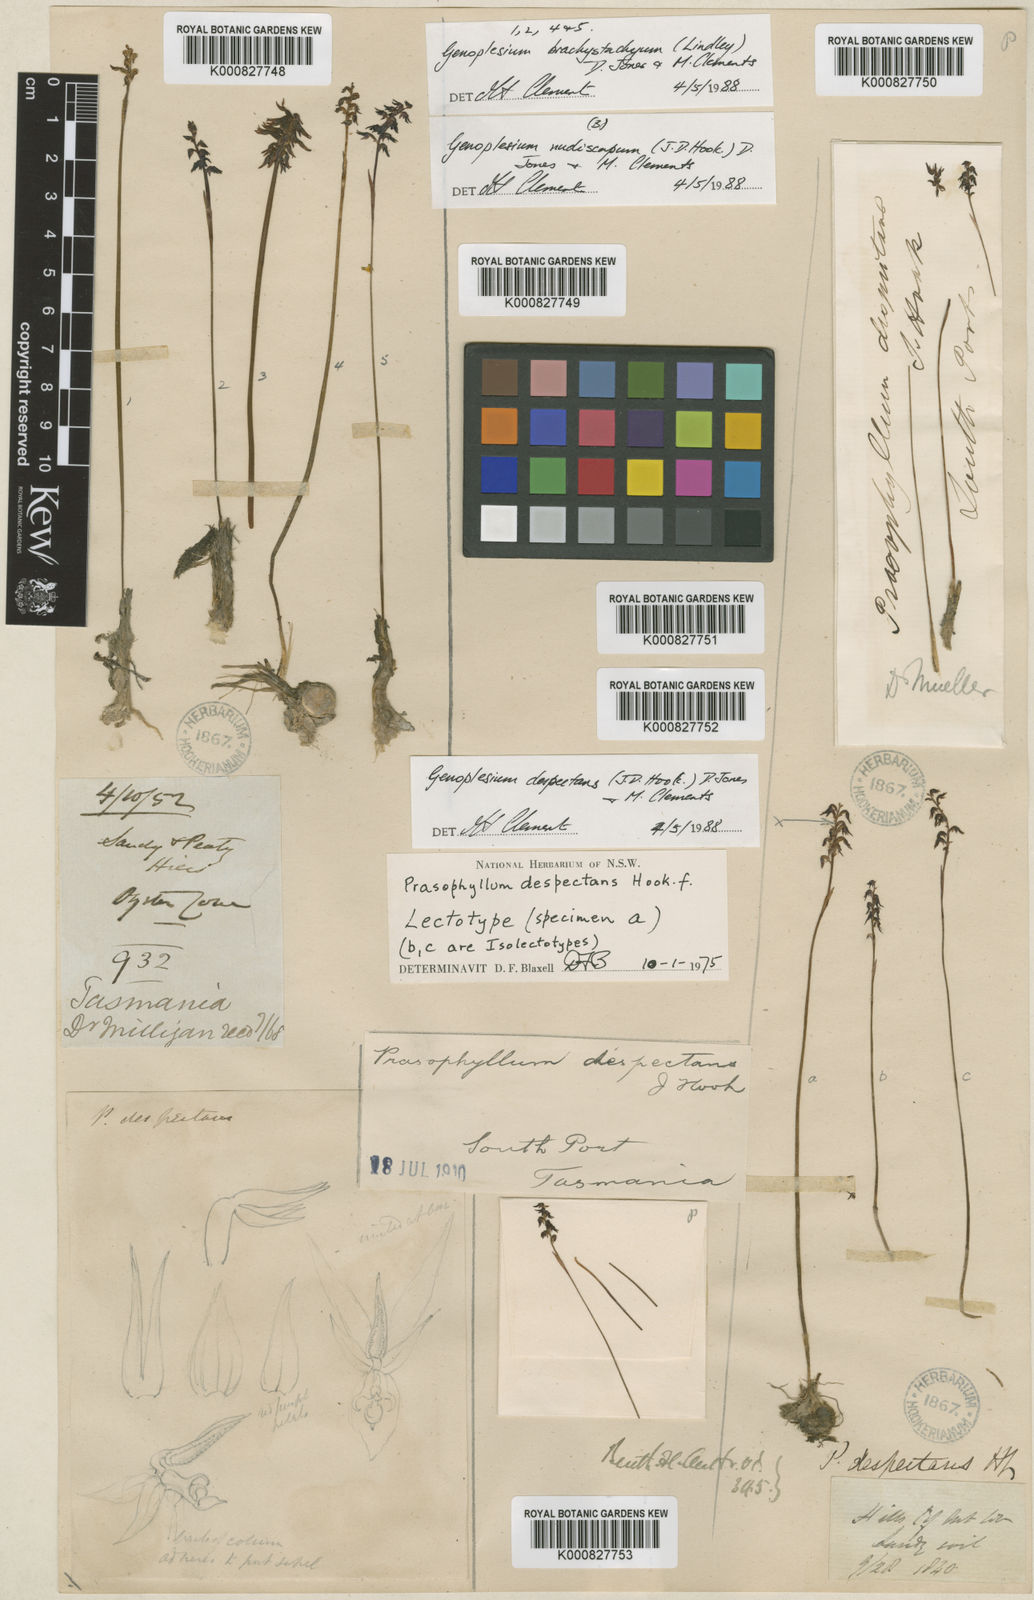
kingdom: Plantae
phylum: Tracheophyta
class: Liliopsida
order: Asparagales
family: Orchidaceae
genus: Genoplesium
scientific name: Genoplesium nigricans
